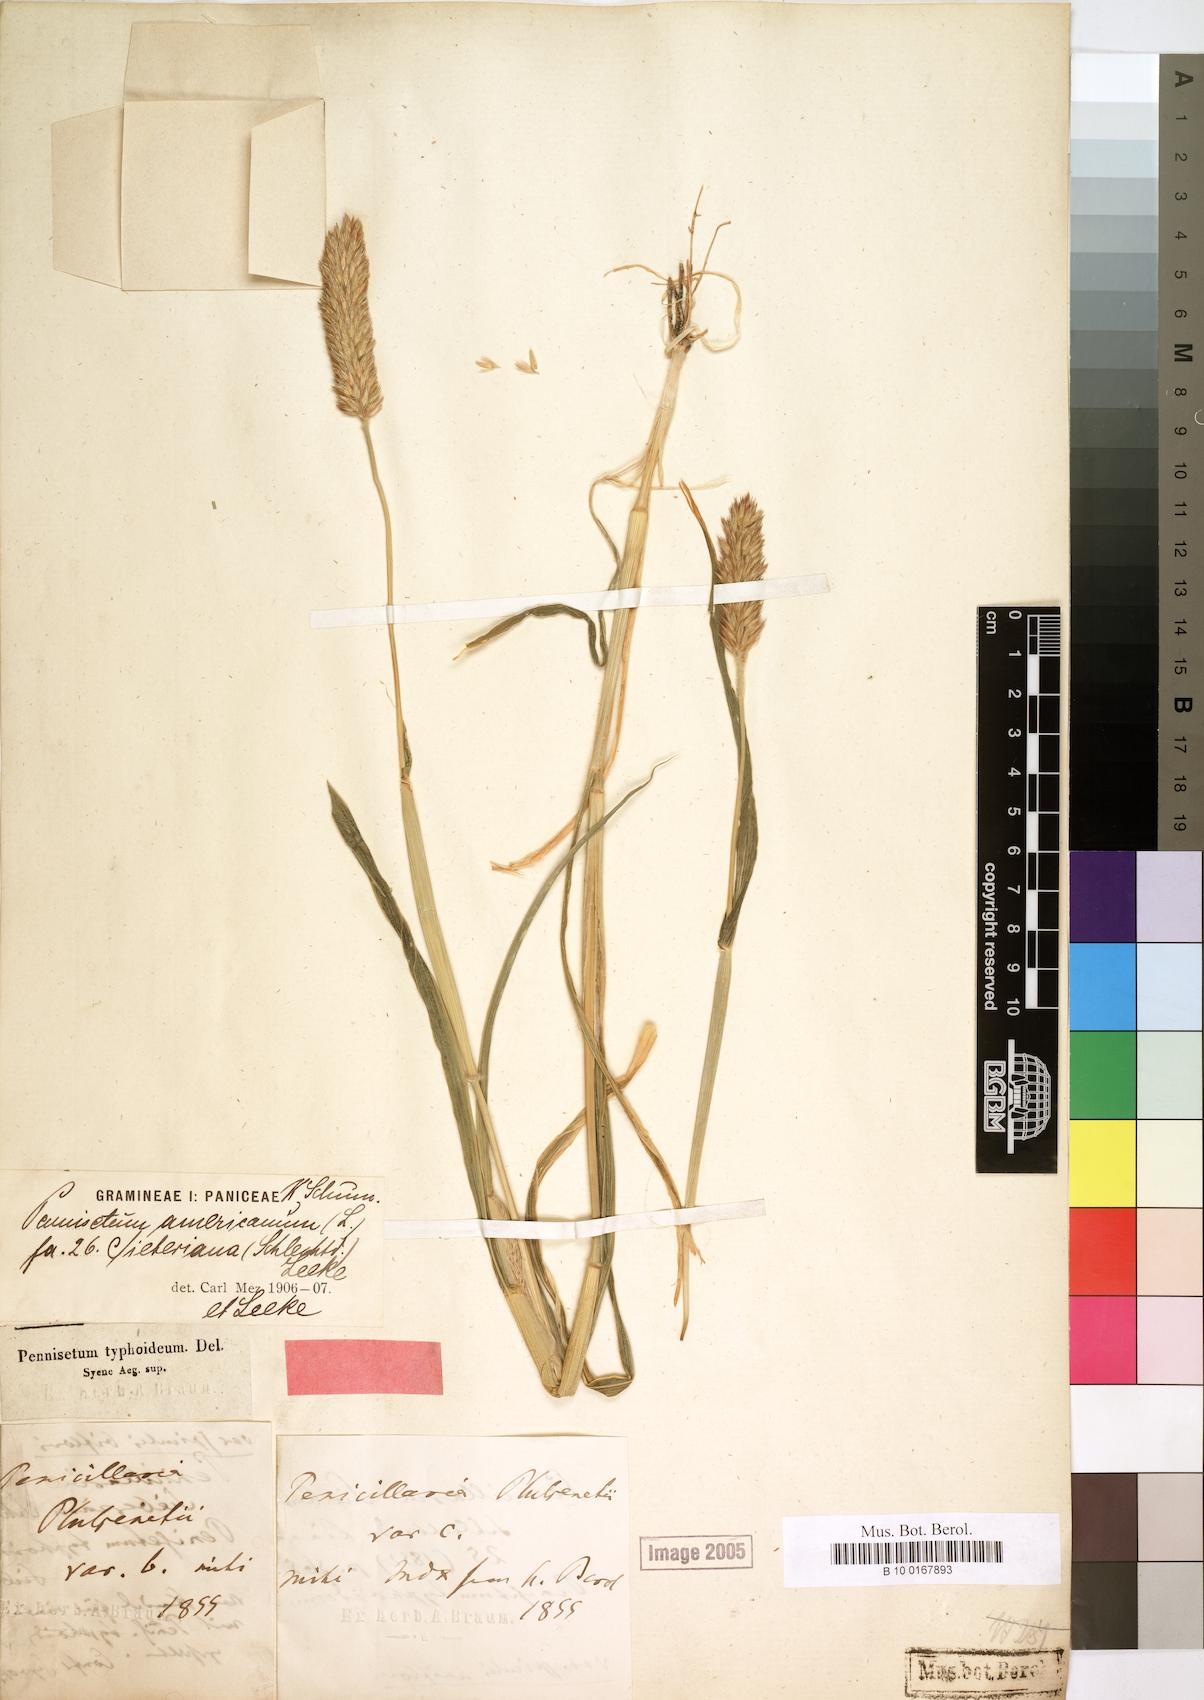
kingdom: Plantae
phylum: Tracheophyta
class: Liliopsida
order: Poales
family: Poaceae
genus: Cenchrus
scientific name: Cenchrus americanus
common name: Pearl millet
